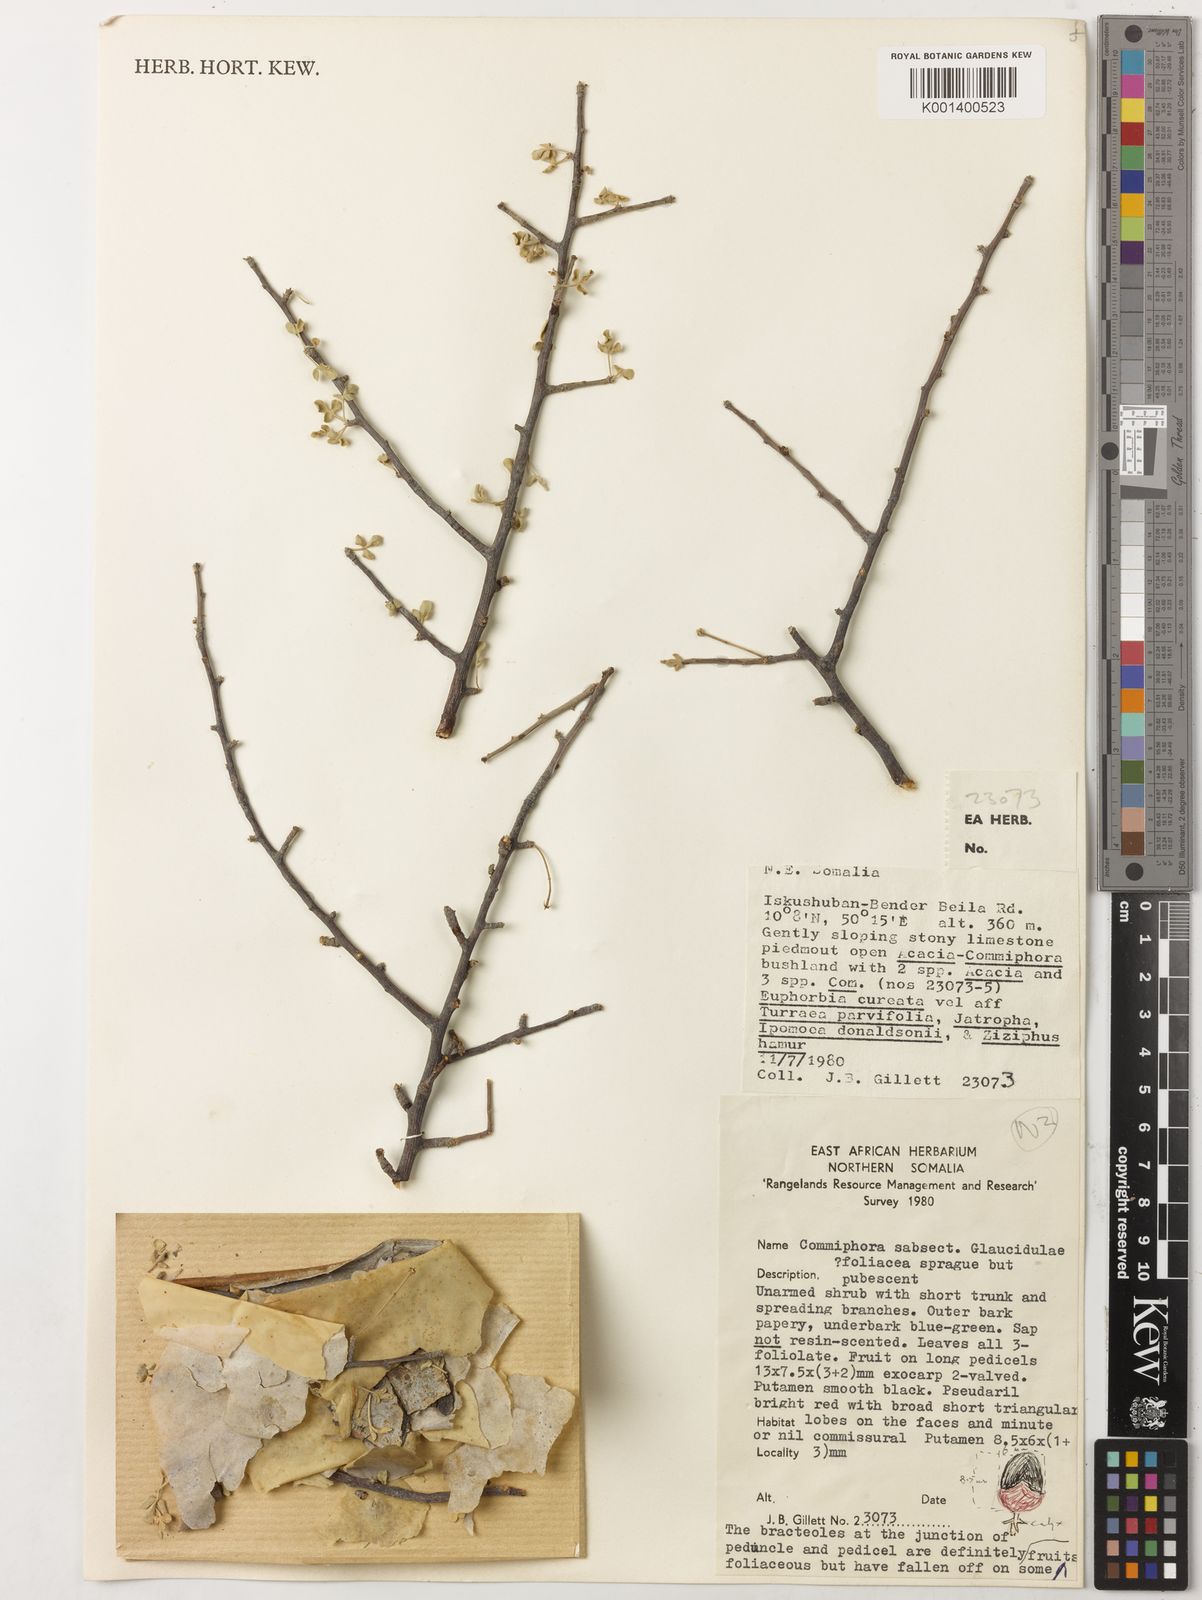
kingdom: Plantae
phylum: Tracheophyta
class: Magnoliopsida
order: Sapindales
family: Burseraceae
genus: Commiphora
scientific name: Commiphora foliacea
